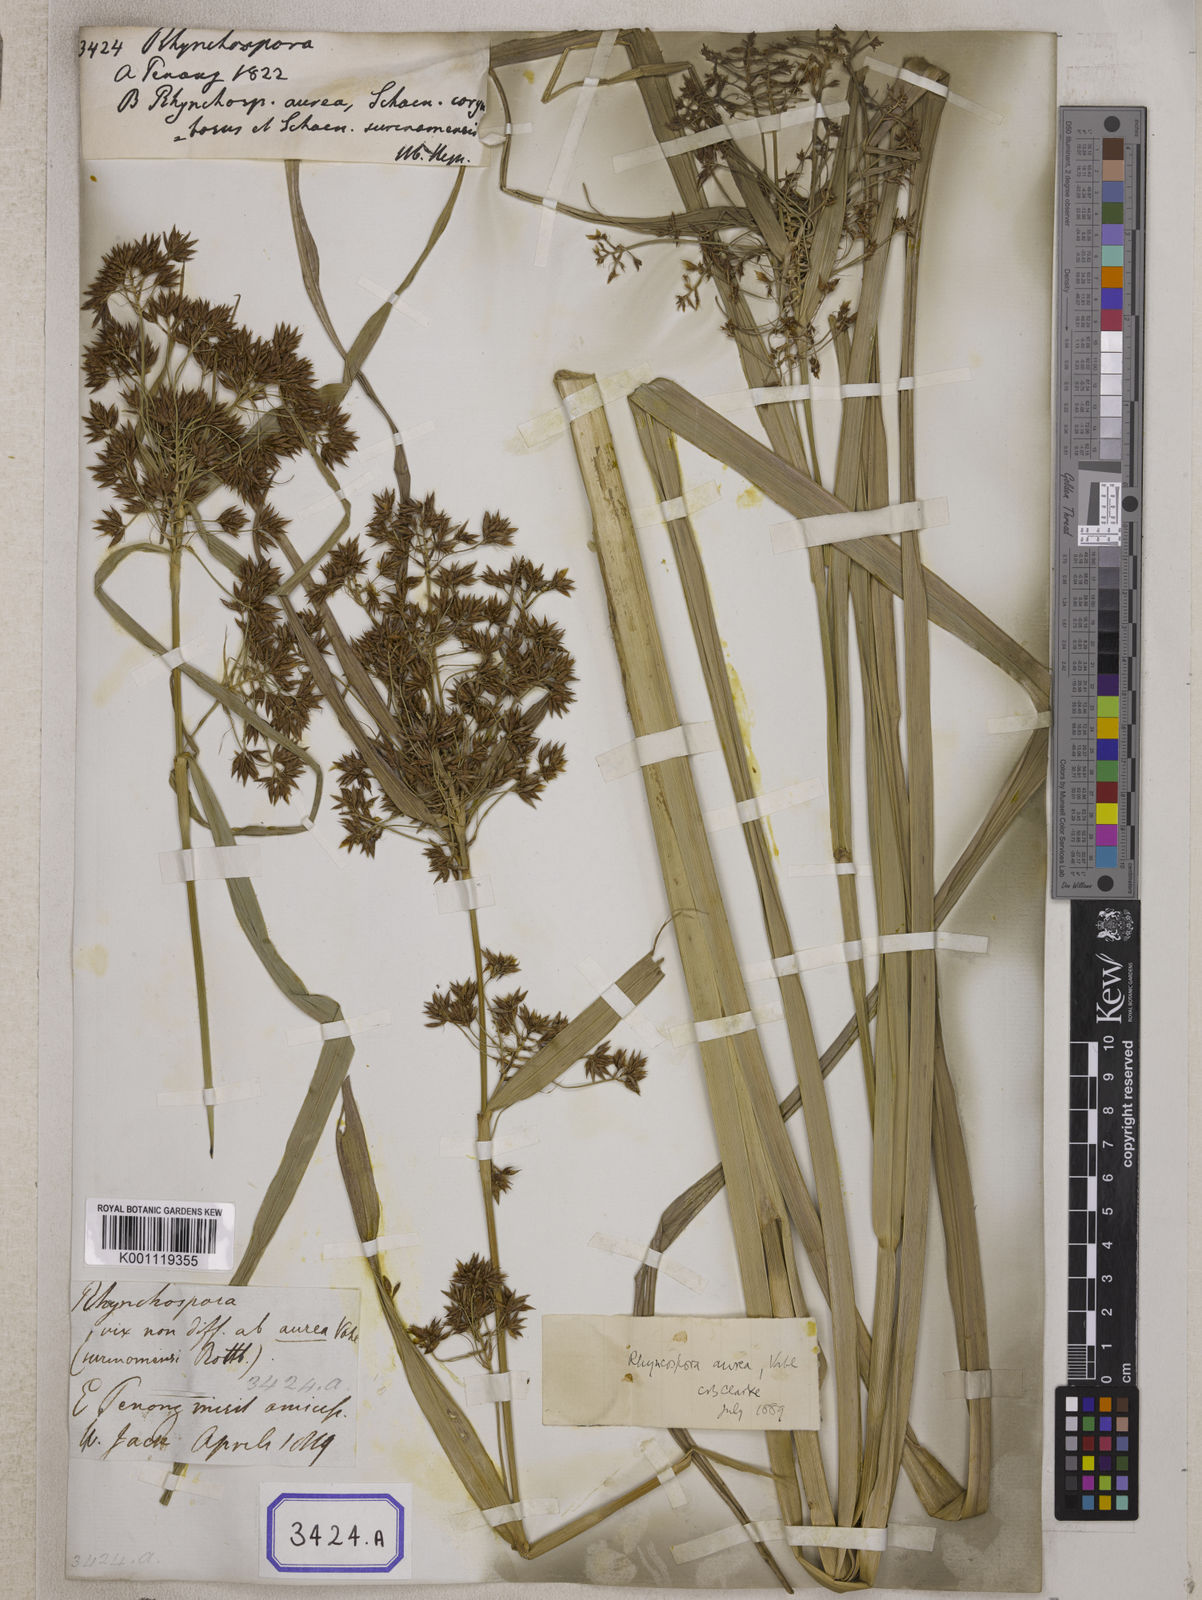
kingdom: Plantae
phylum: Tracheophyta
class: Liliopsida
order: Poales
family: Cyperaceae
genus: Rhynchospora
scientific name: Rhynchospora
